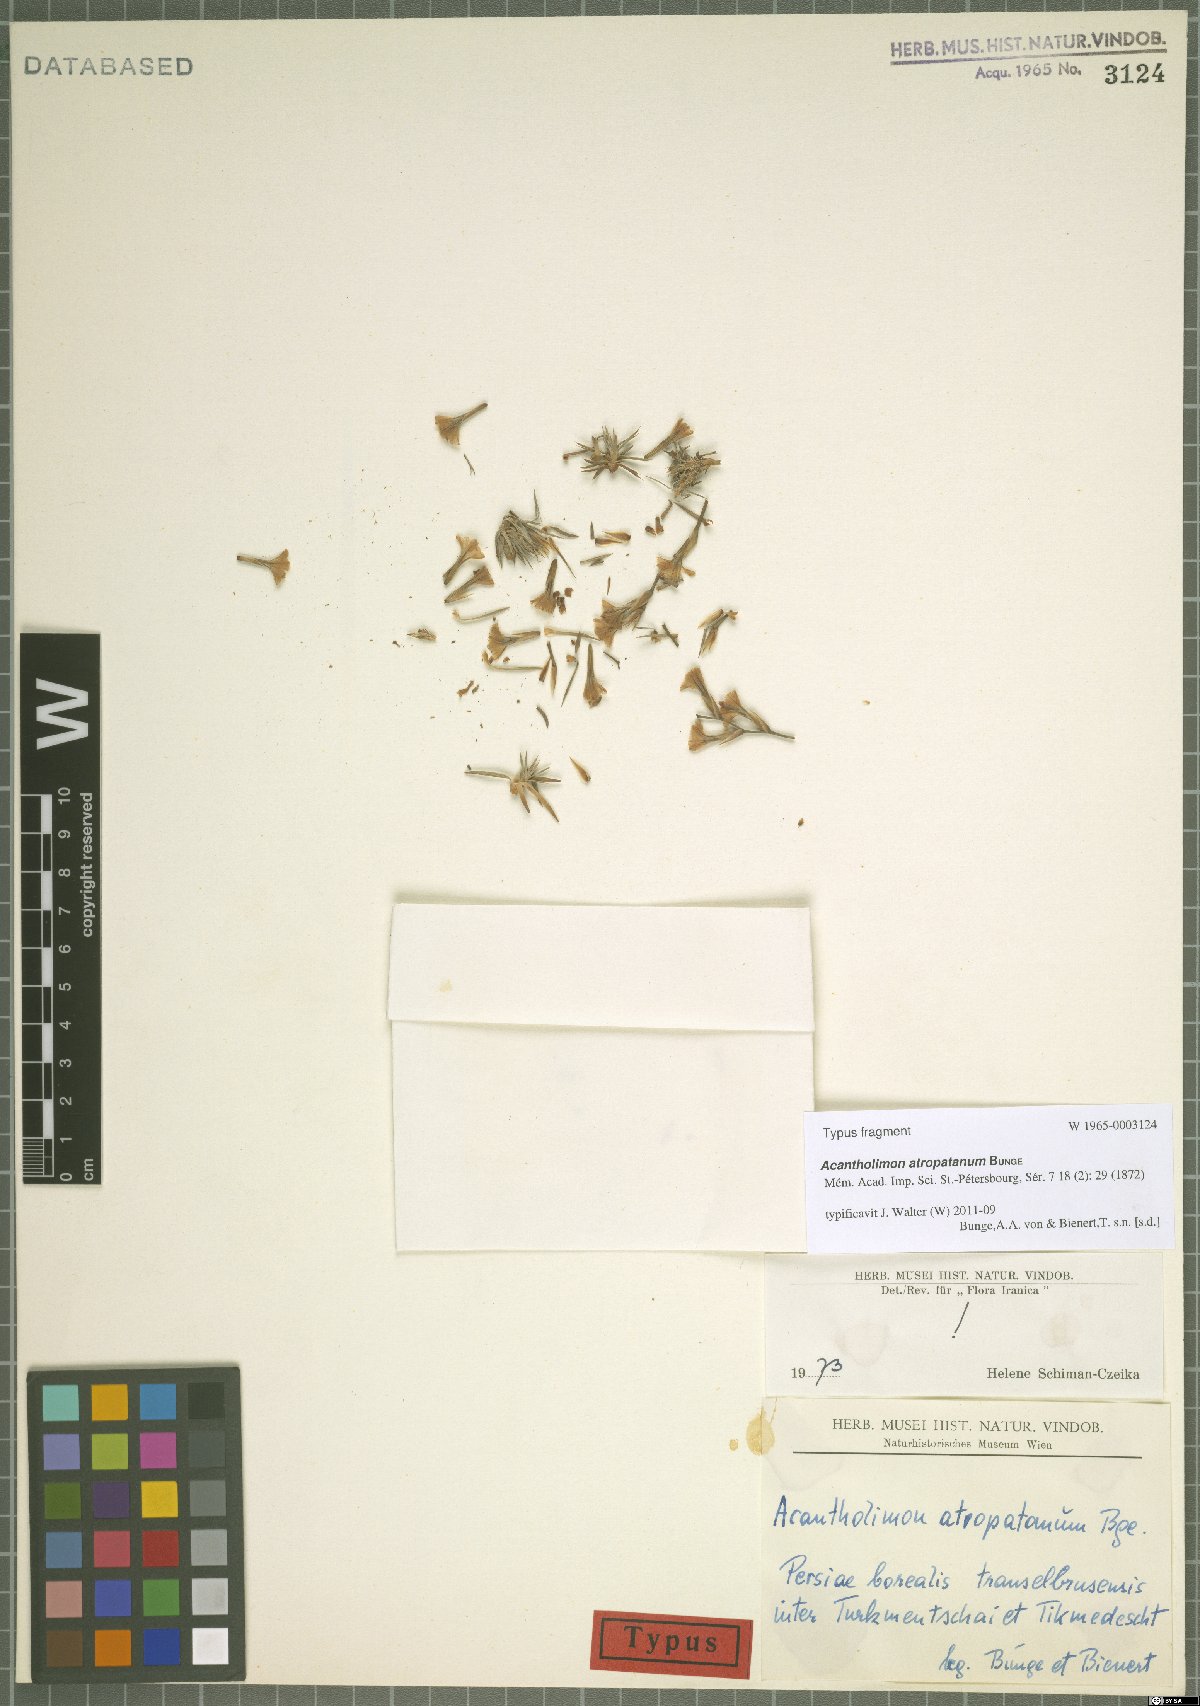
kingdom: Plantae
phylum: Tracheophyta
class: Magnoliopsida
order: Caryophyllales
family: Plumbaginaceae
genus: Acantholimon
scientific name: Acantholimon atropatanum
